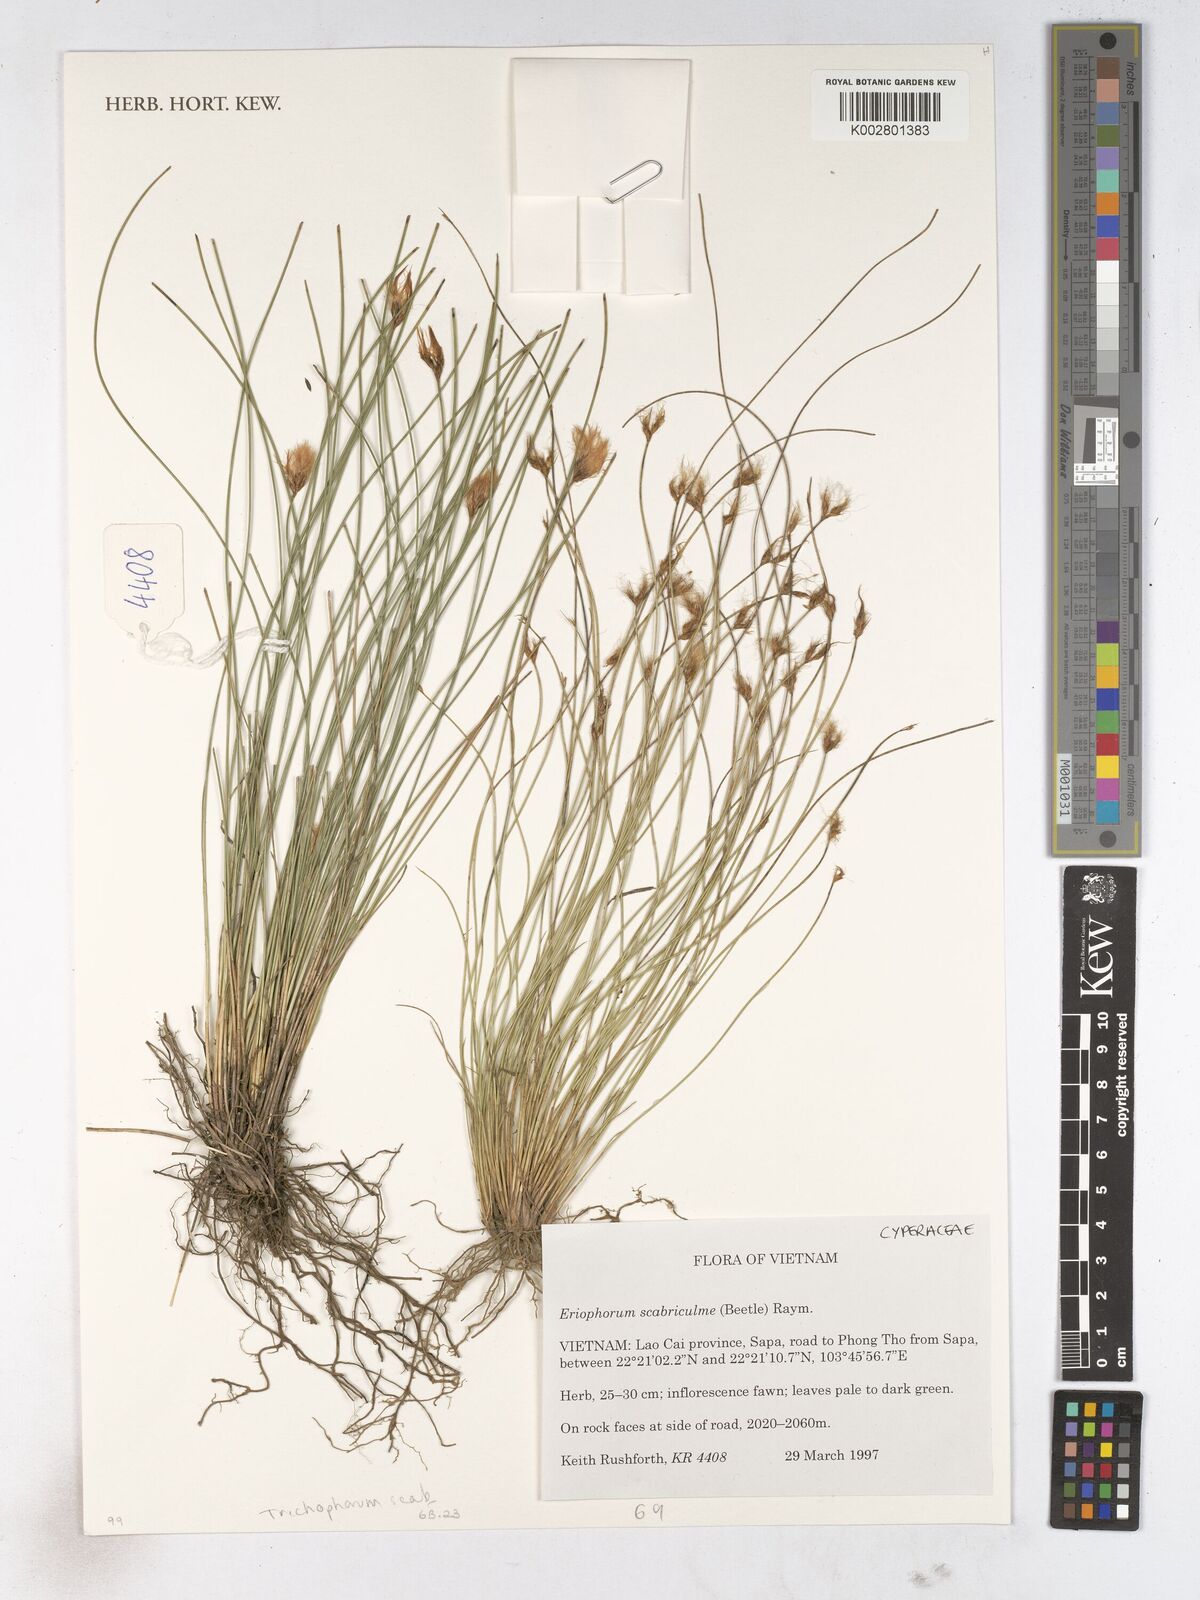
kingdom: Plantae
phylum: Tracheophyta
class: Liliopsida
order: Poales
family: Cyperaceae
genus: Trichophorum
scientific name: Trichophorum scabriculme
